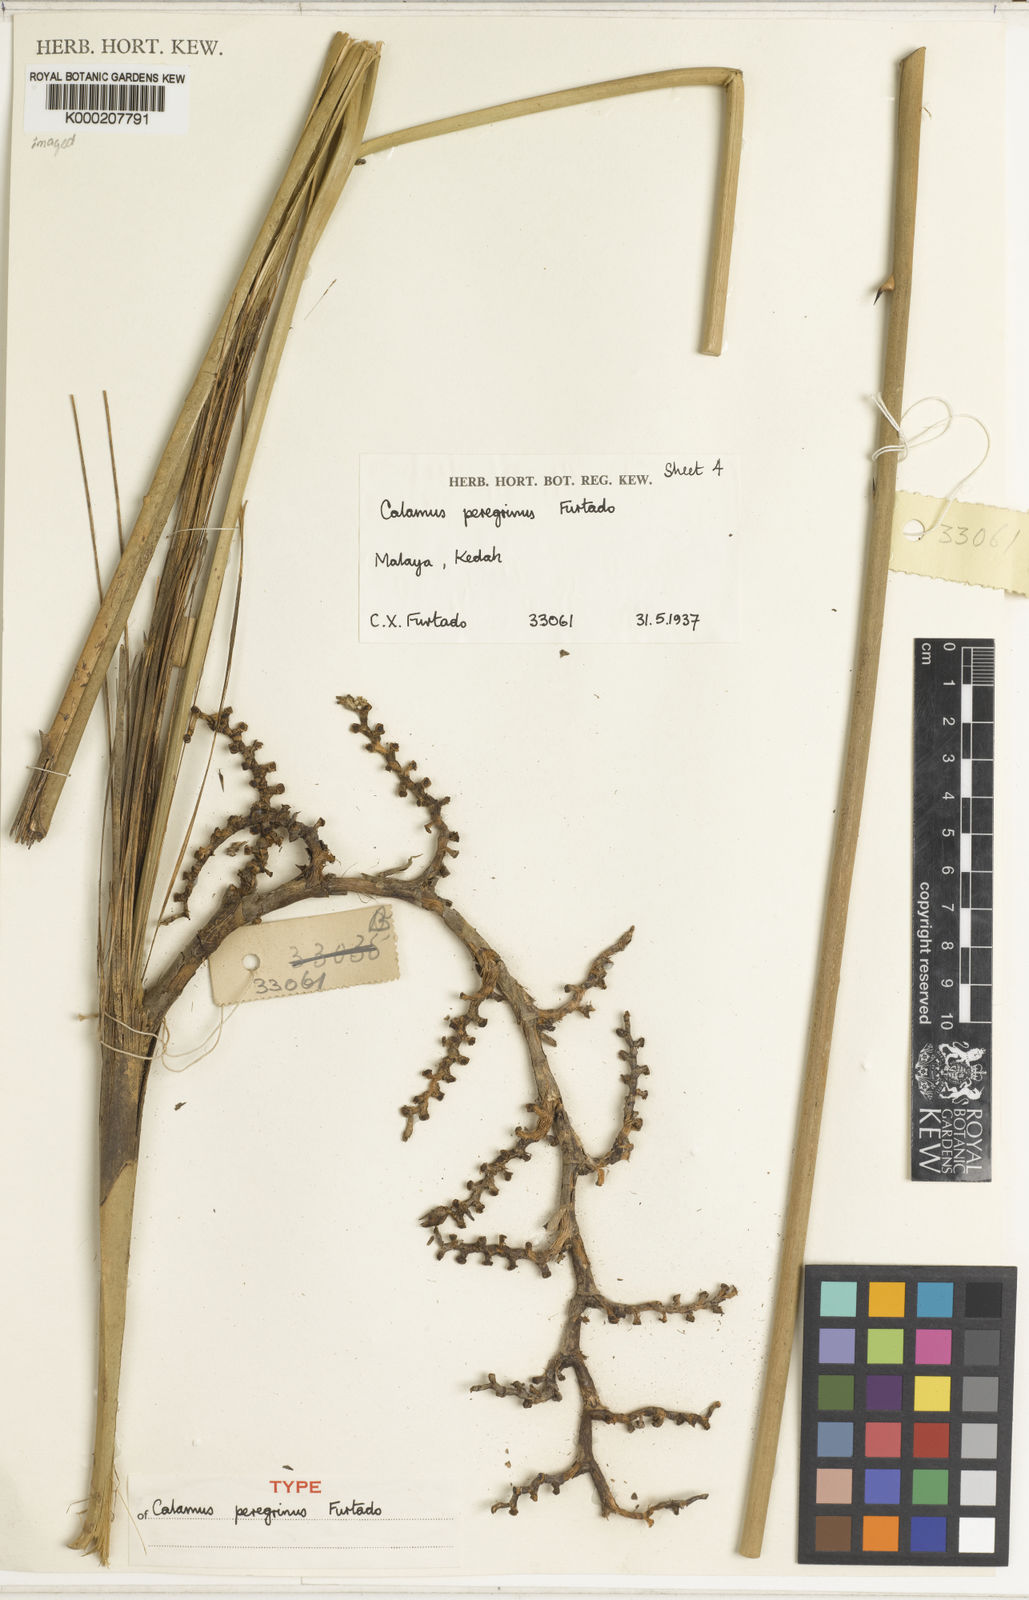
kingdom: Plantae
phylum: Tracheophyta
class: Liliopsida
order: Arecales
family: Arecaceae
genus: Calamus
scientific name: Calamus peregrinus
